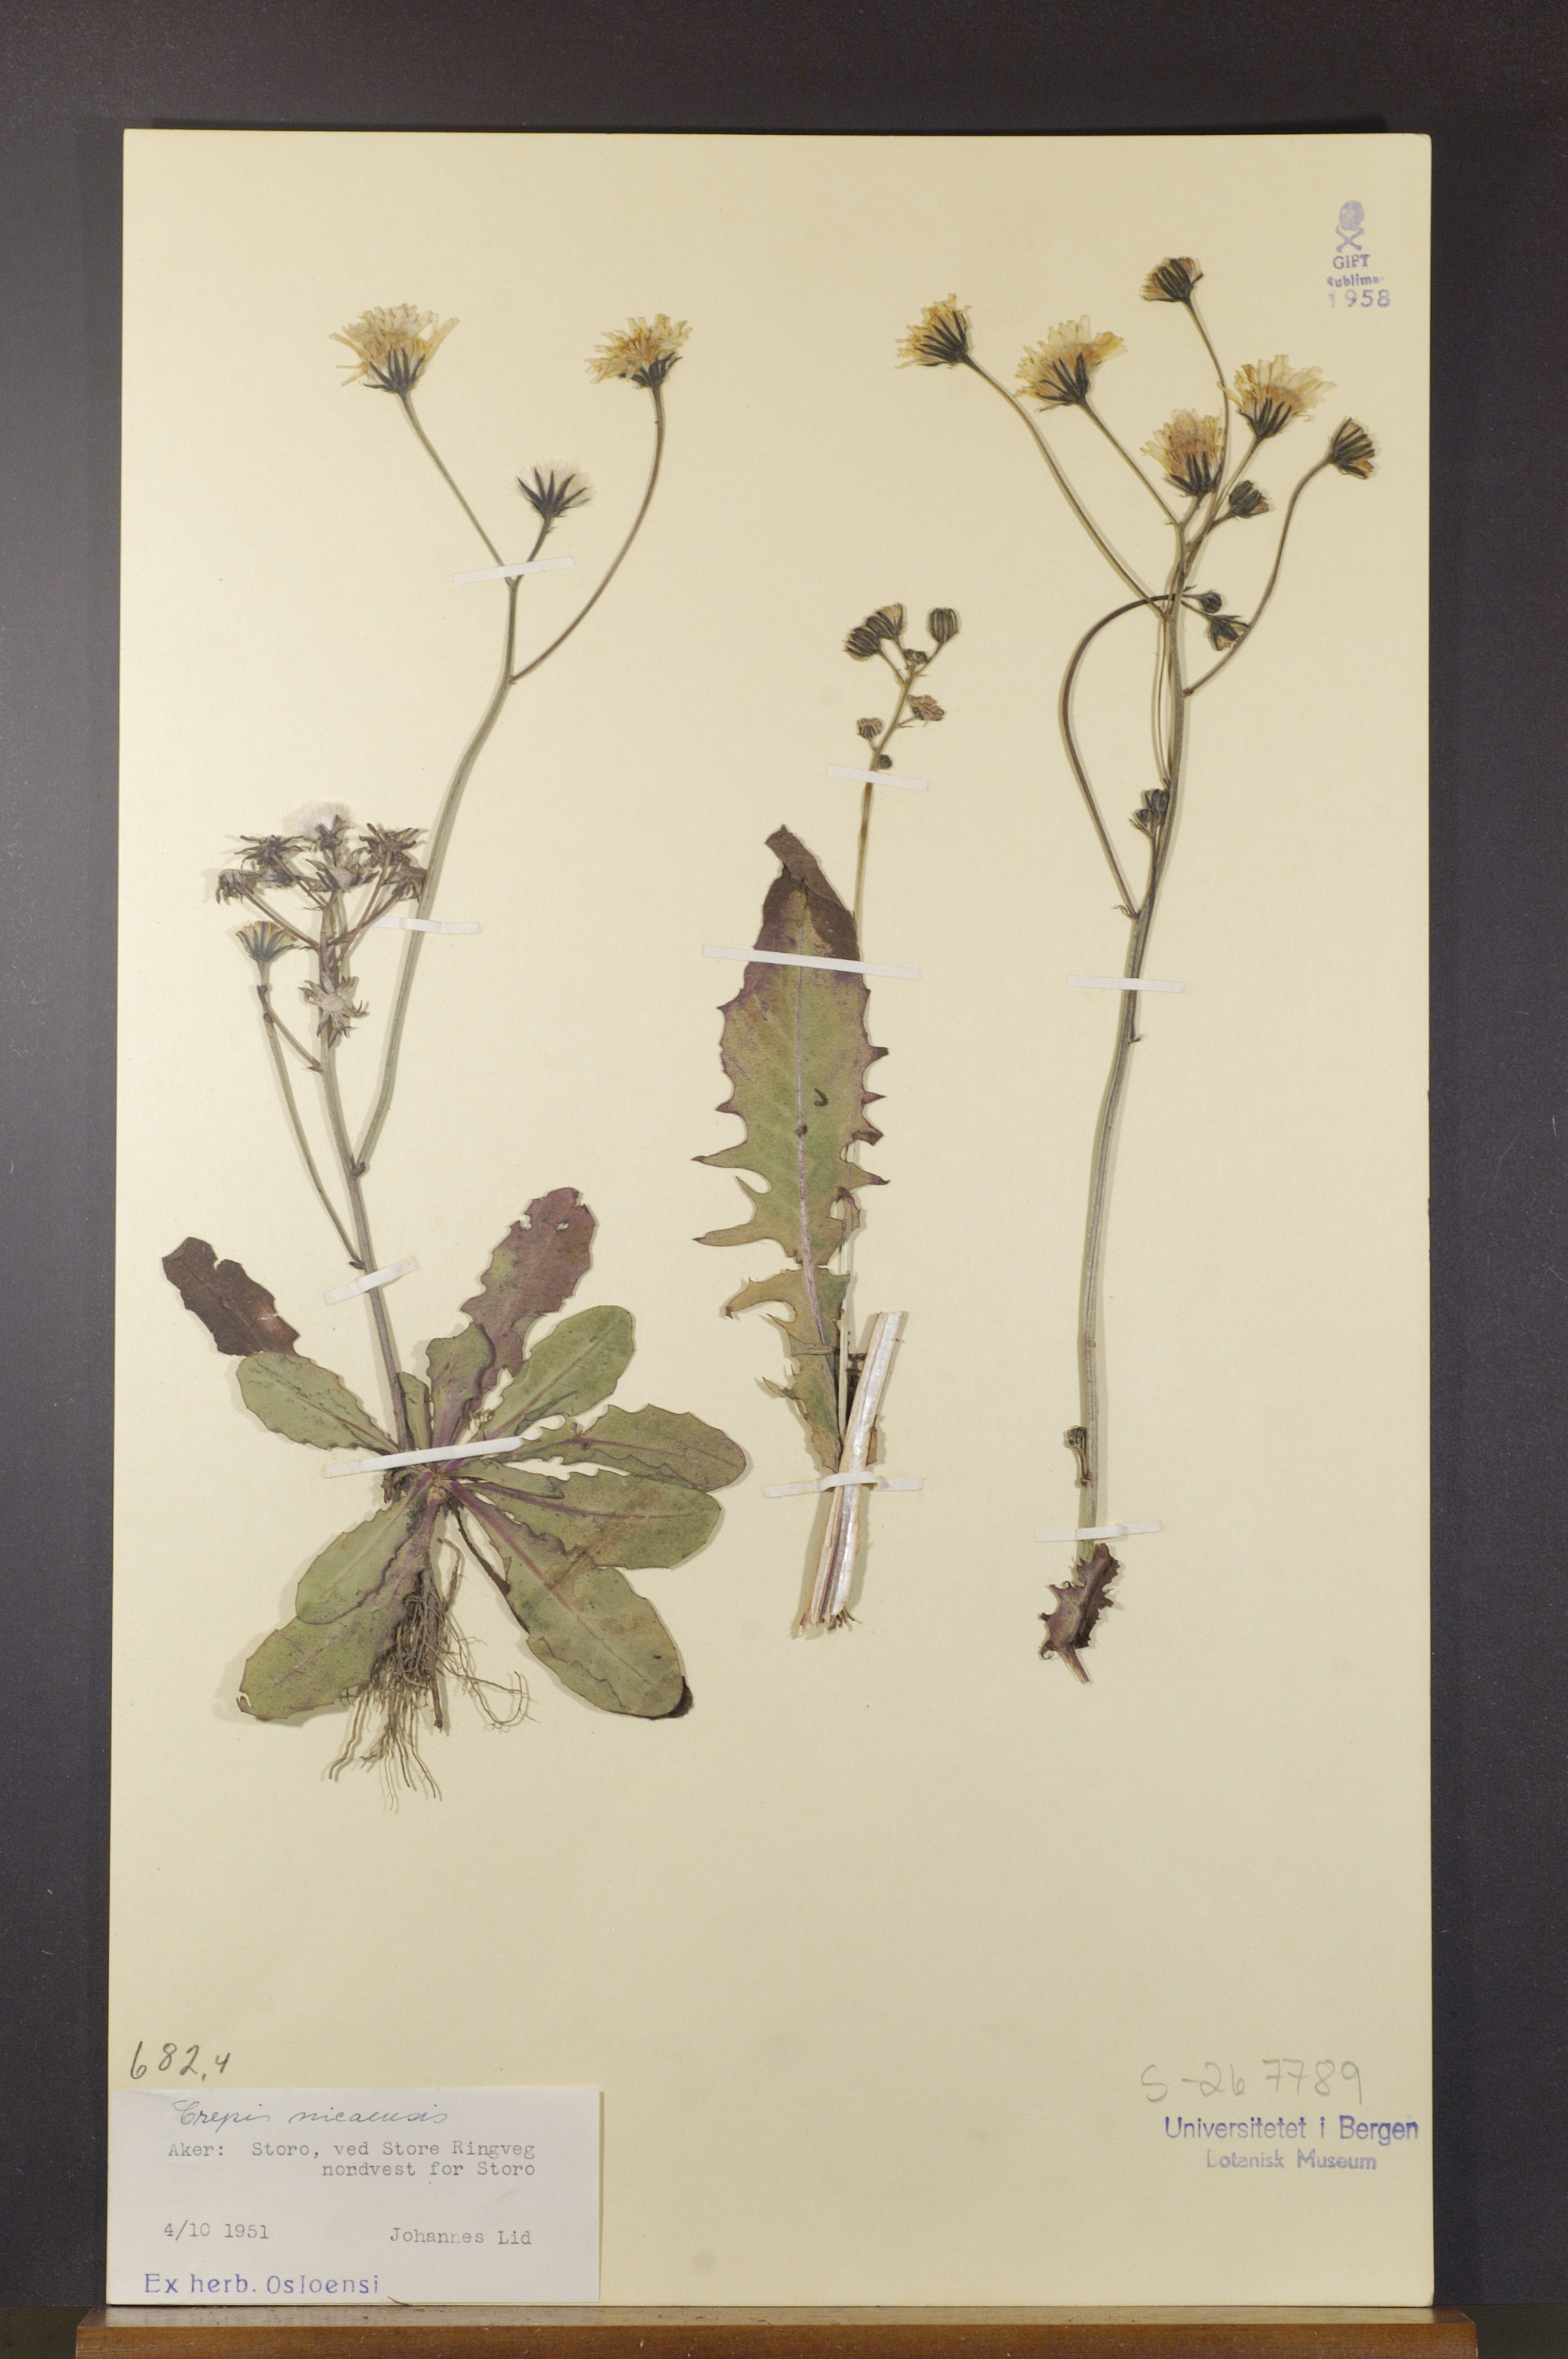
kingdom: Plantae
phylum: Tracheophyta
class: Magnoliopsida
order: Asterales
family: Asteraceae
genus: Crepis
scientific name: Crepis nicaeensis
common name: Turkish hawksbeard
